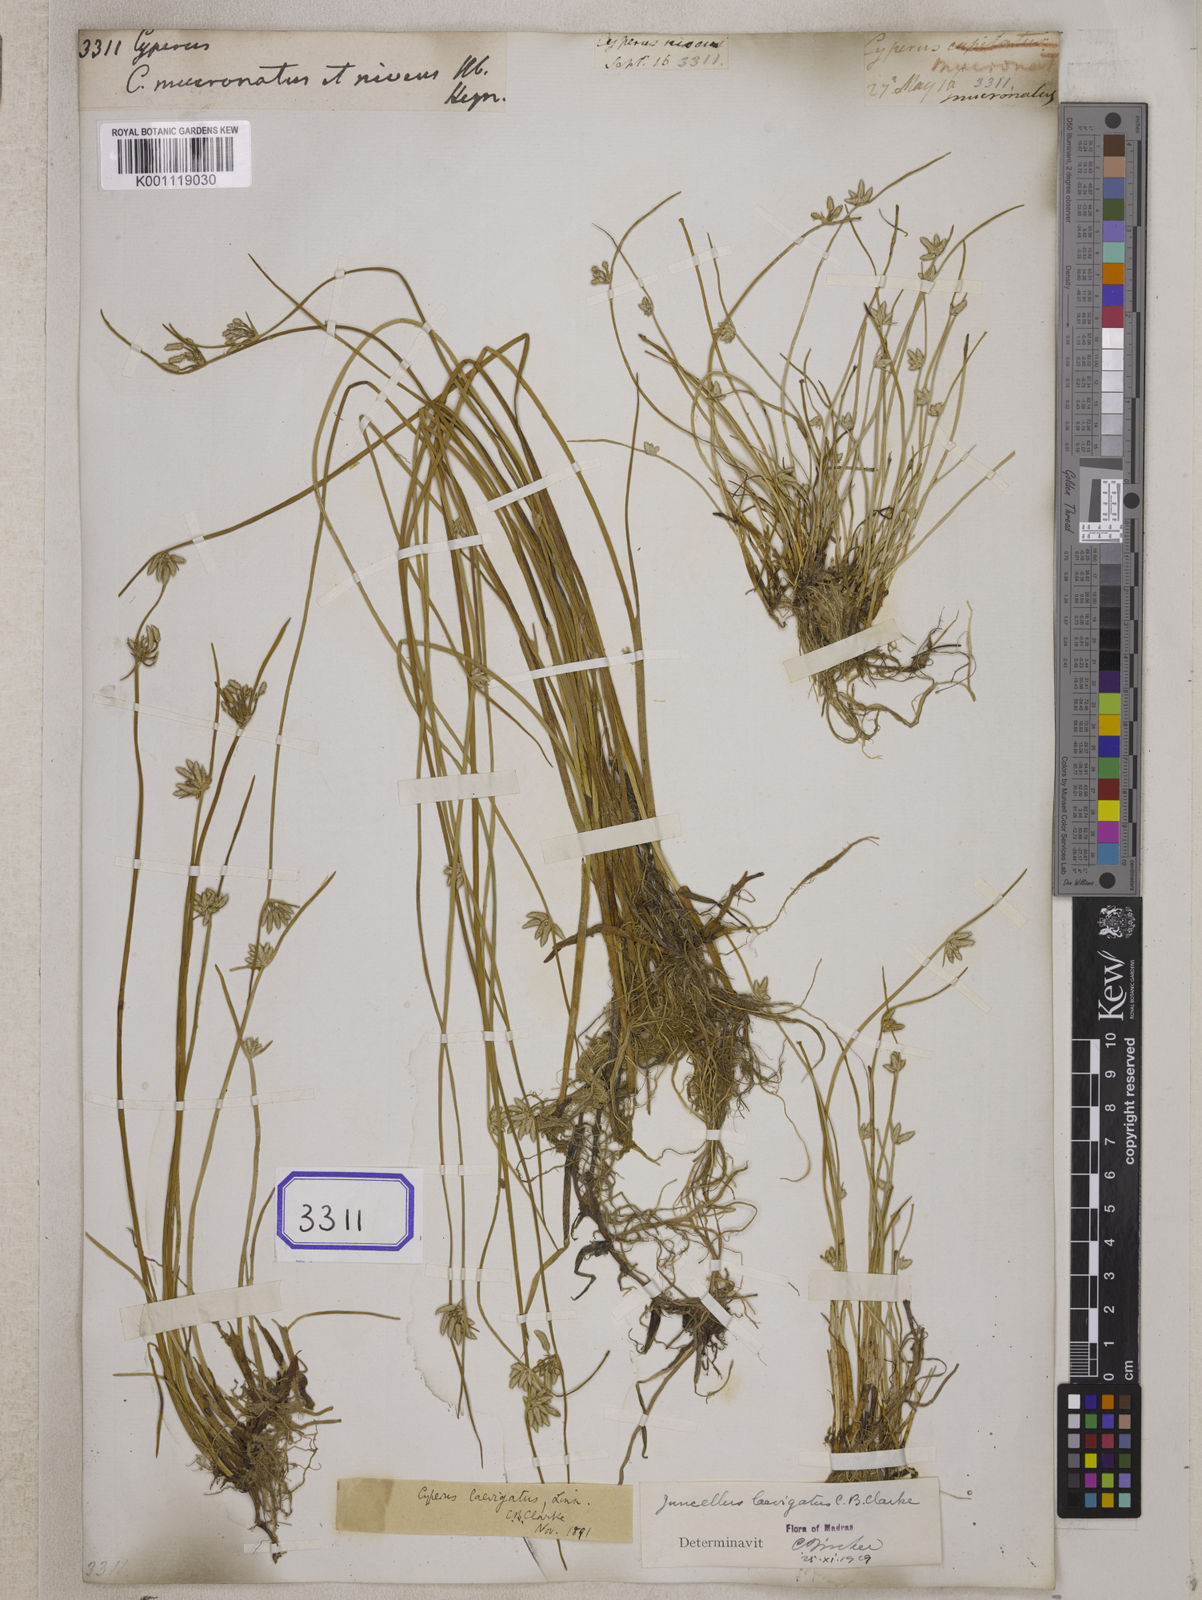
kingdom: Plantae
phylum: Tracheophyta
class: Liliopsida
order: Poales
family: Cyperaceae
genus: Cyperus
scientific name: Cyperus
